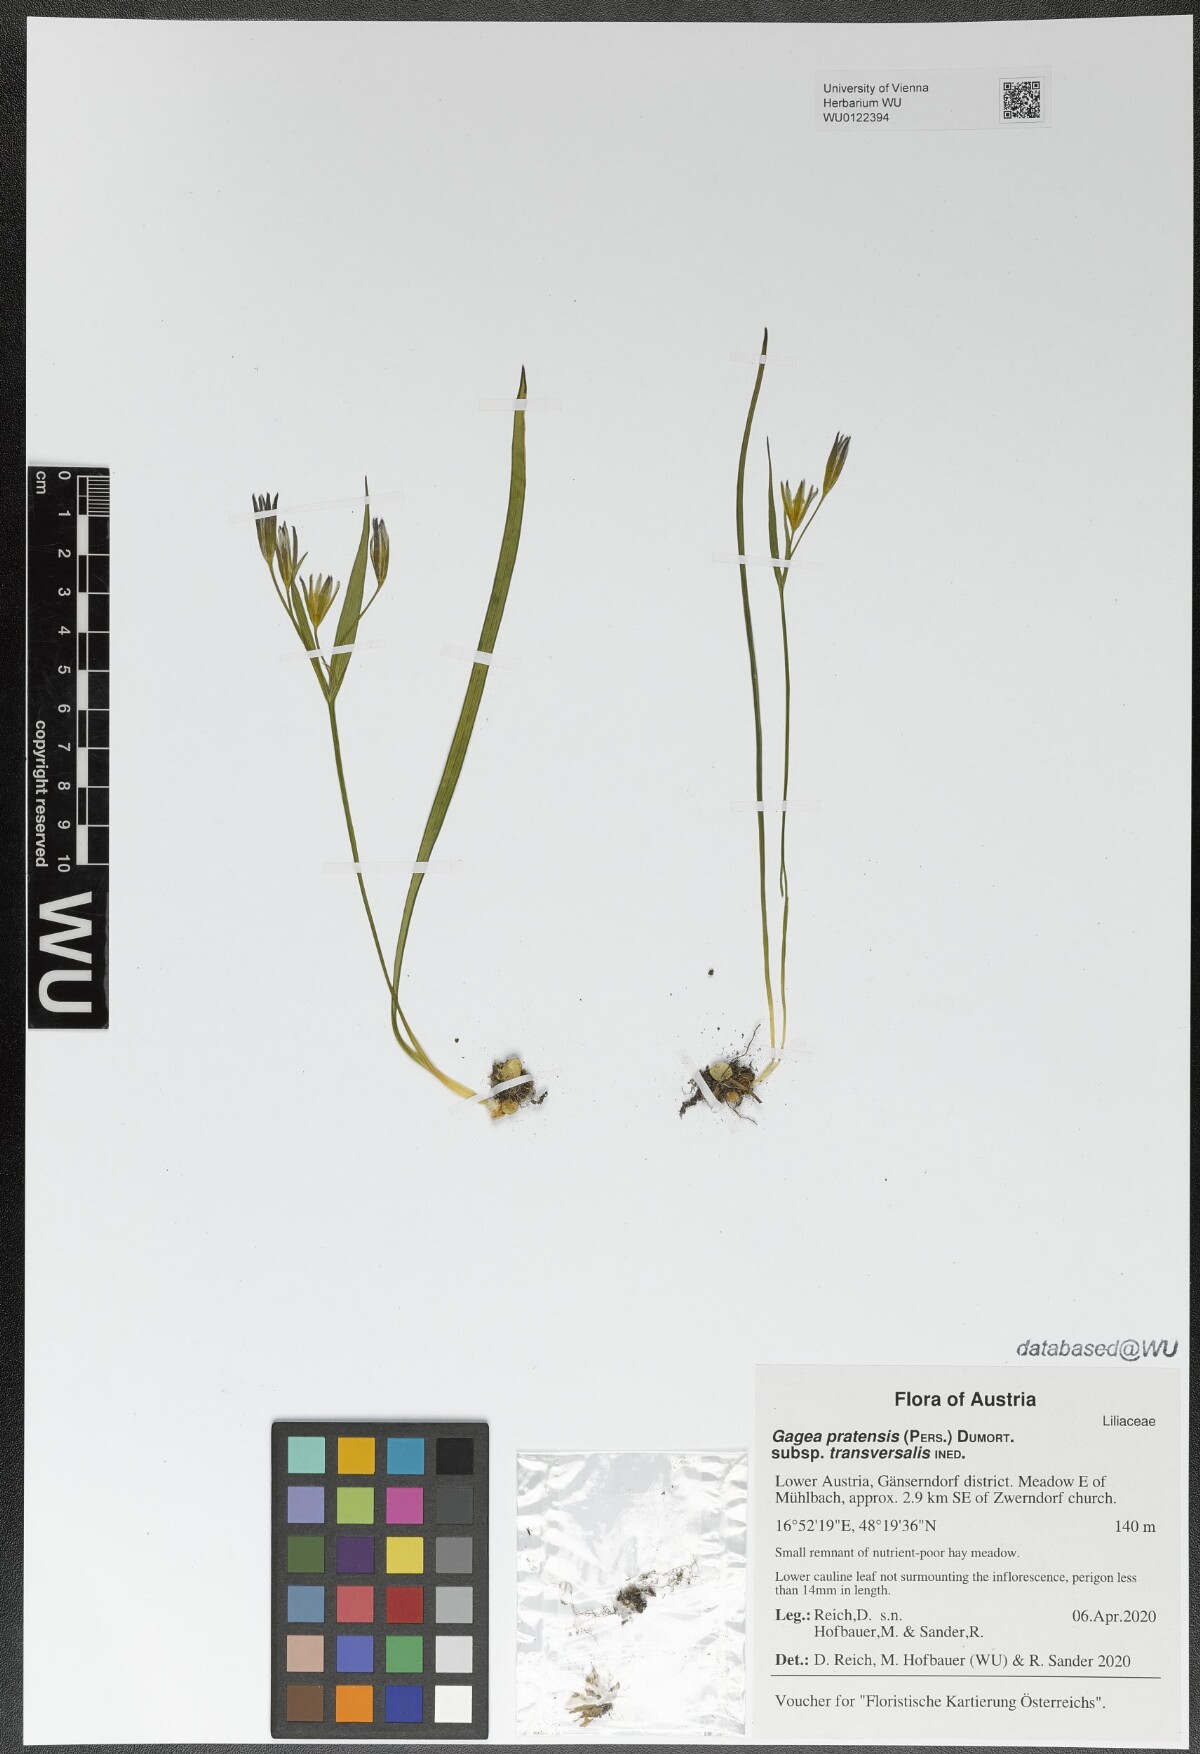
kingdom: Plantae
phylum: Tracheophyta
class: Liliopsida
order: Liliales
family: Liliaceae
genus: Gagea
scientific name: Gagea pratensis
